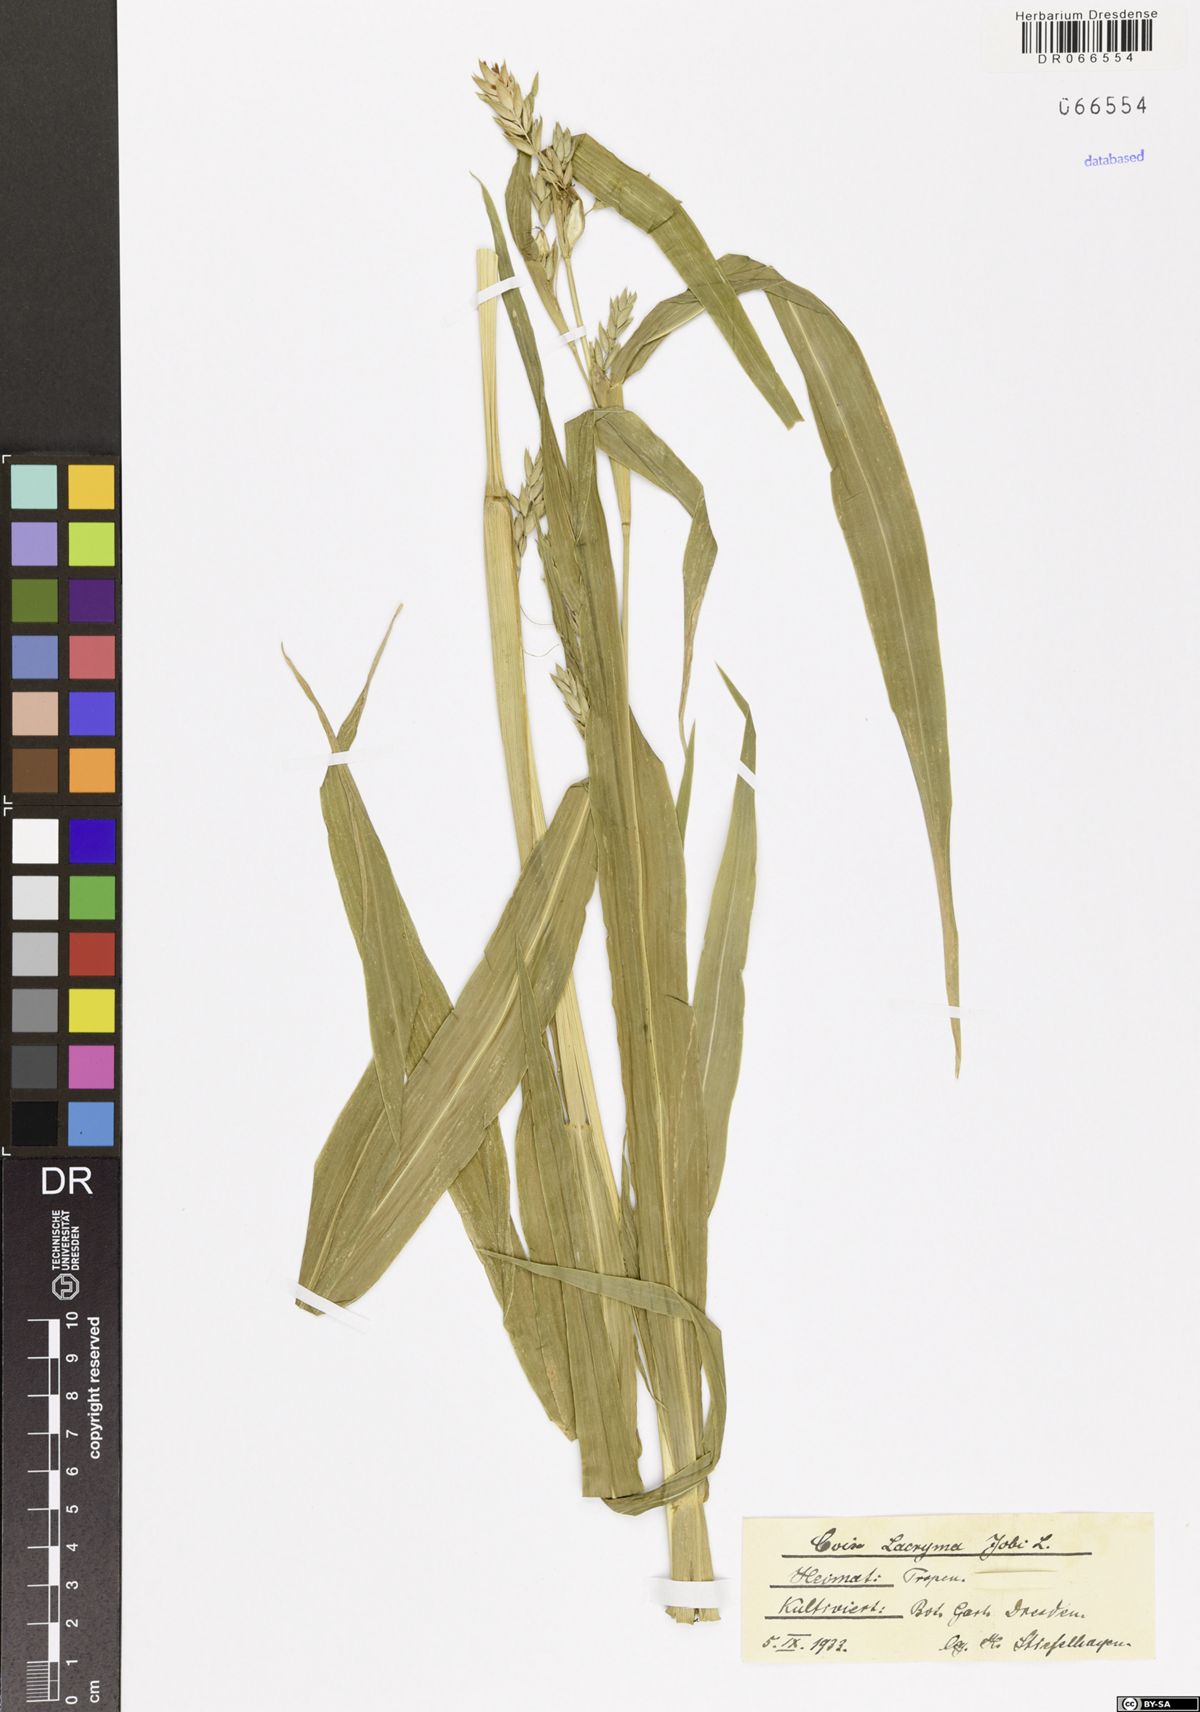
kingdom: Plantae
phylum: Tracheophyta
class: Liliopsida
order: Poales
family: Poaceae
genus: Coix
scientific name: Coix lacryma-jobi
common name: Job's tears
